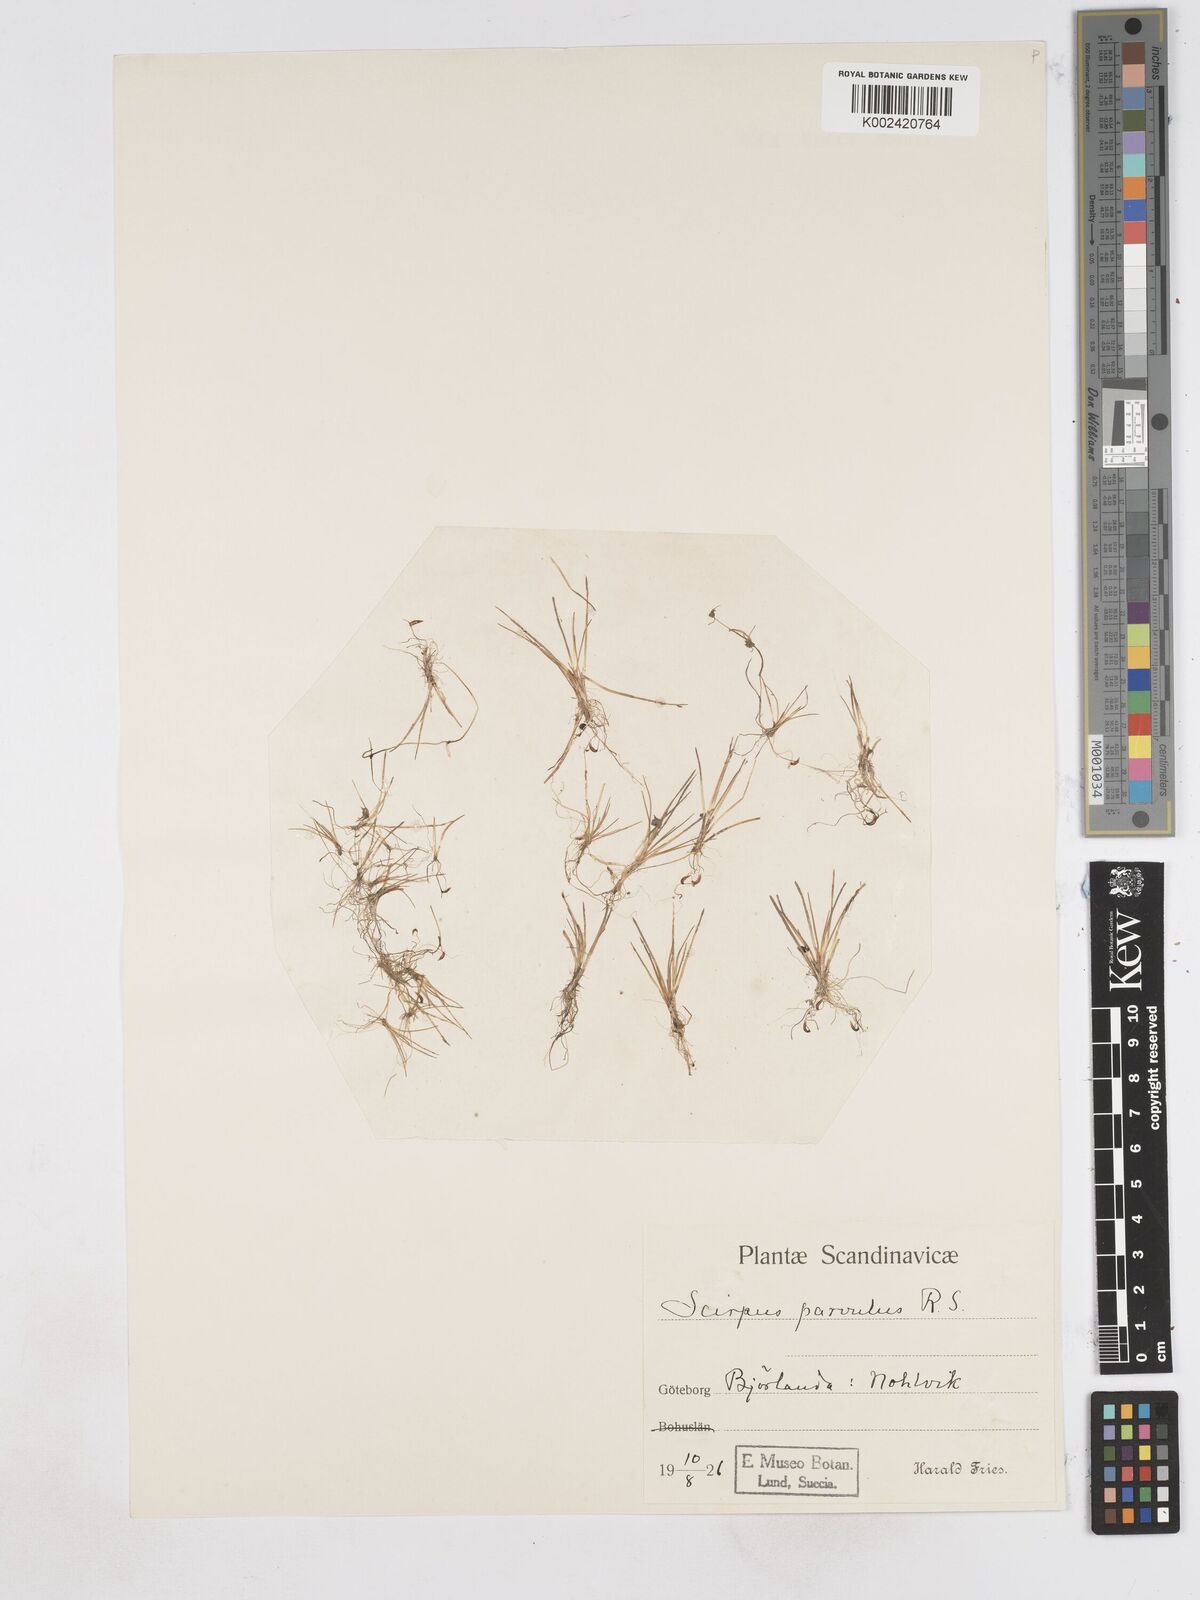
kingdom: Plantae
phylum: Tracheophyta
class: Liliopsida
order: Poales
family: Cyperaceae
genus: Eleocharis
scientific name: Eleocharis parvula
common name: Dwarf spike-rush
